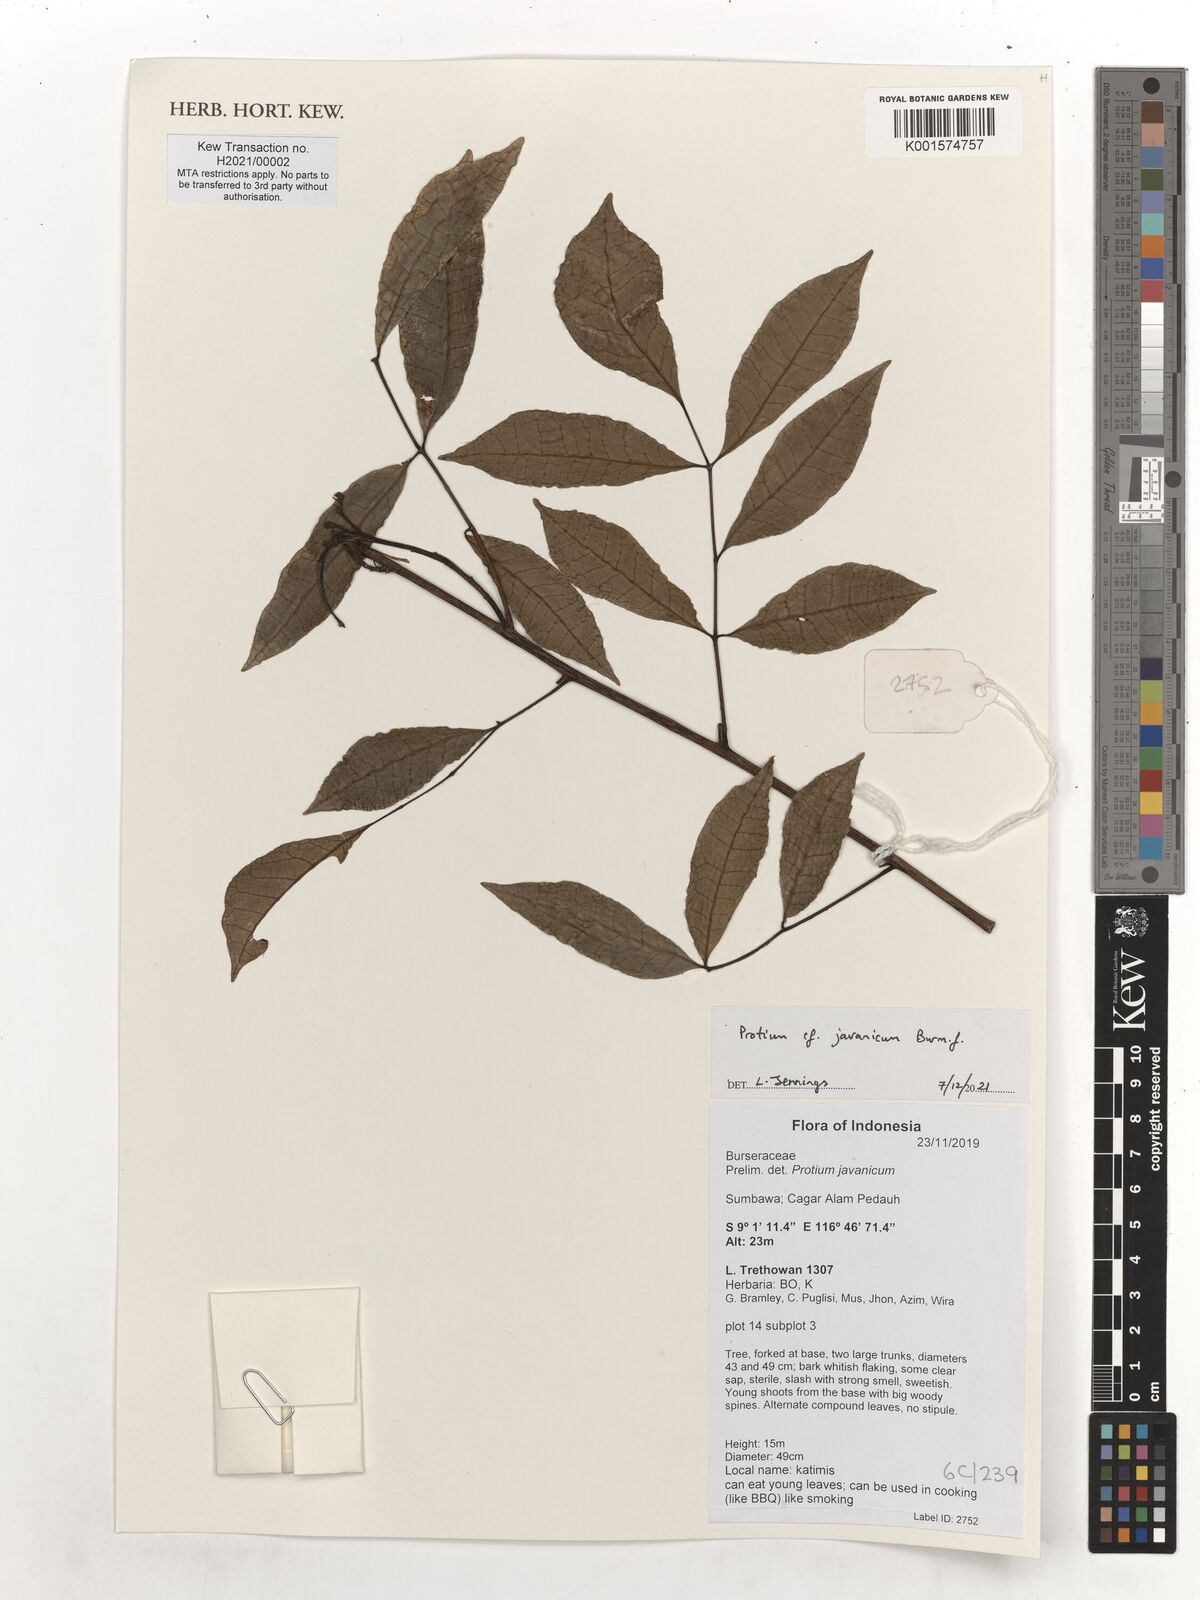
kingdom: Plantae
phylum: Tracheophyta
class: Magnoliopsida
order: Sapindales
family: Burseraceae
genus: Protium
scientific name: Protium javanicum
